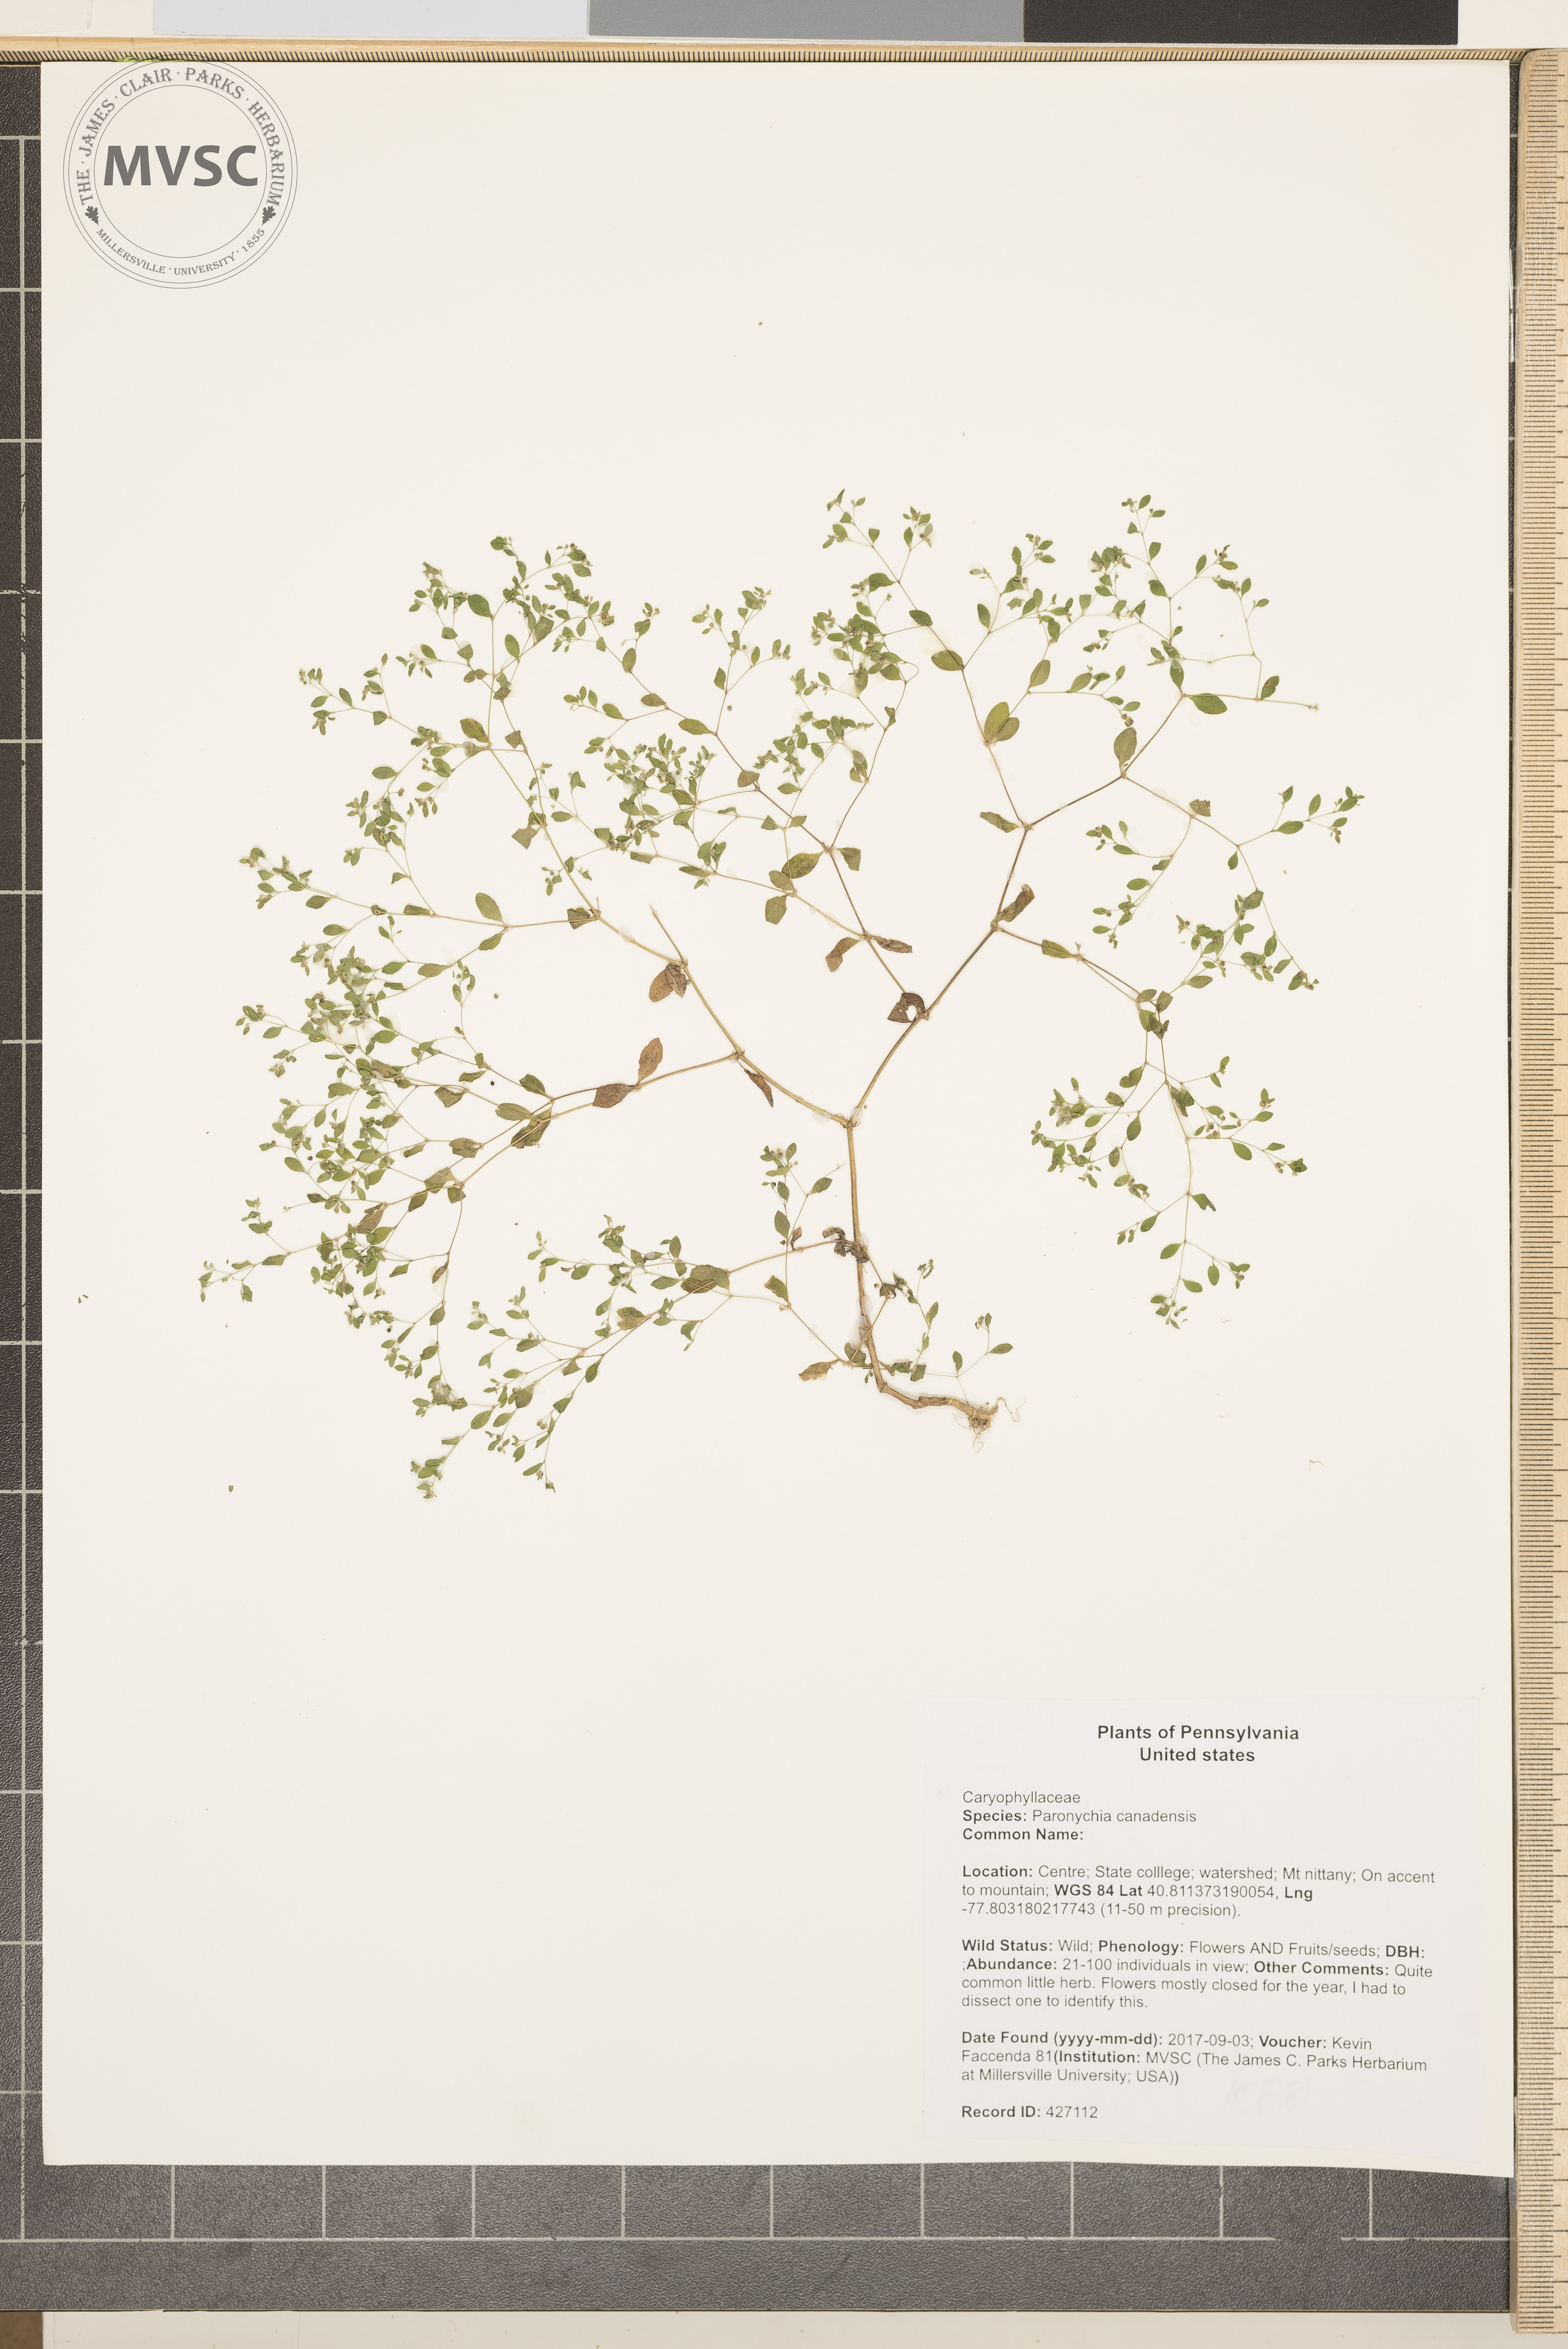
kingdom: Plantae
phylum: Tracheophyta
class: Magnoliopsida
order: Caryophyllales
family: Caryophyllaceae
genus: Paronychia
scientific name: Paronychia canadensis
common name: Canada forked nailwort
